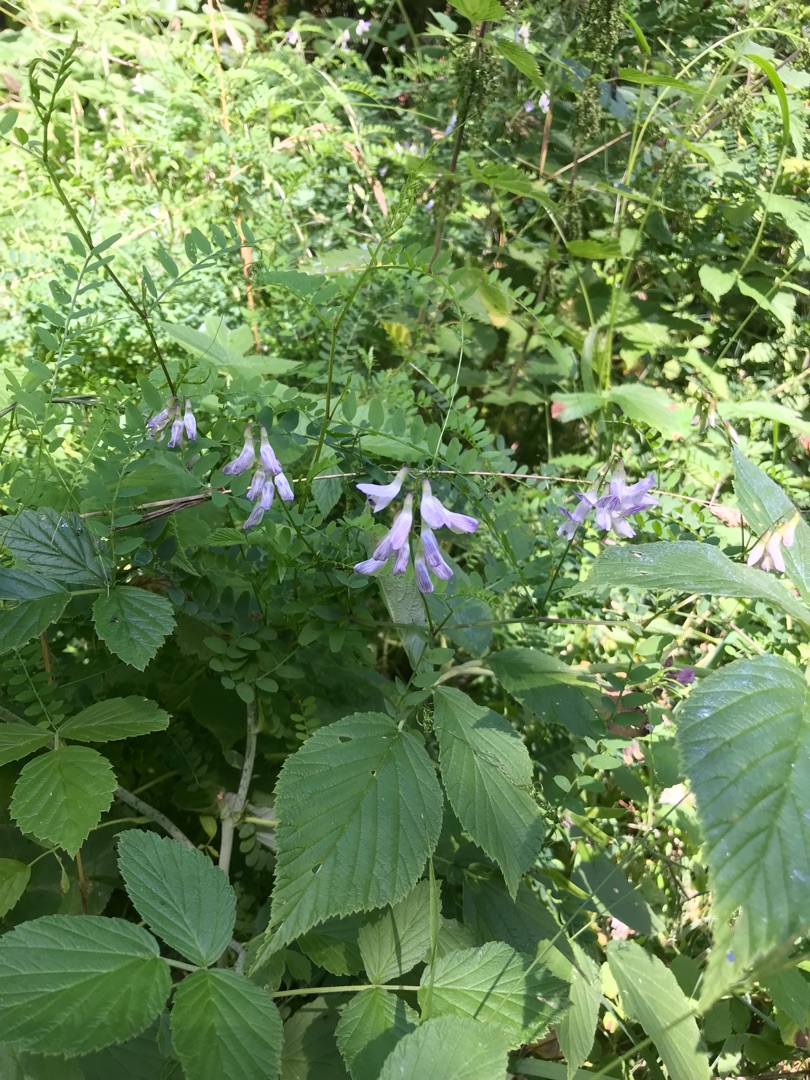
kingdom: Plantae
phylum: Tracheophyta
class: Magnoliopsida
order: Fabales
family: Fabaceae
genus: Vicia
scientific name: Vicia sylvatica
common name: Skov-vikke
